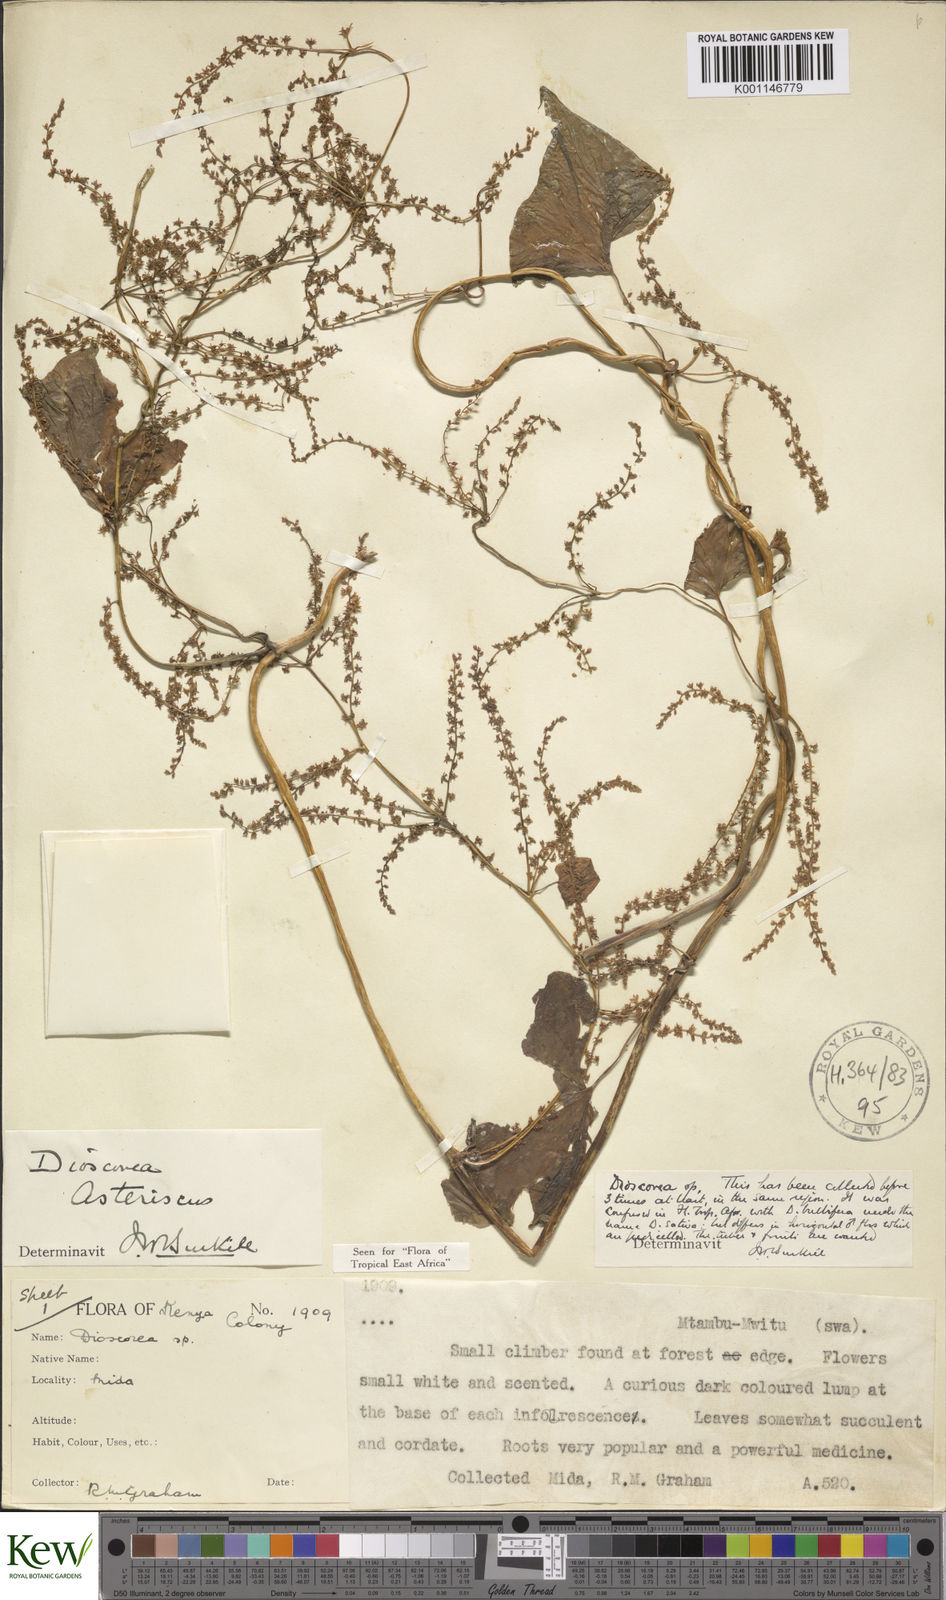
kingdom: Plantae
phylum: Tracheophyta
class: Liliopsida
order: Dioscoreales
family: Dioscoreaceae
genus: Dioscorea
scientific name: Dioscorea asteriscus
